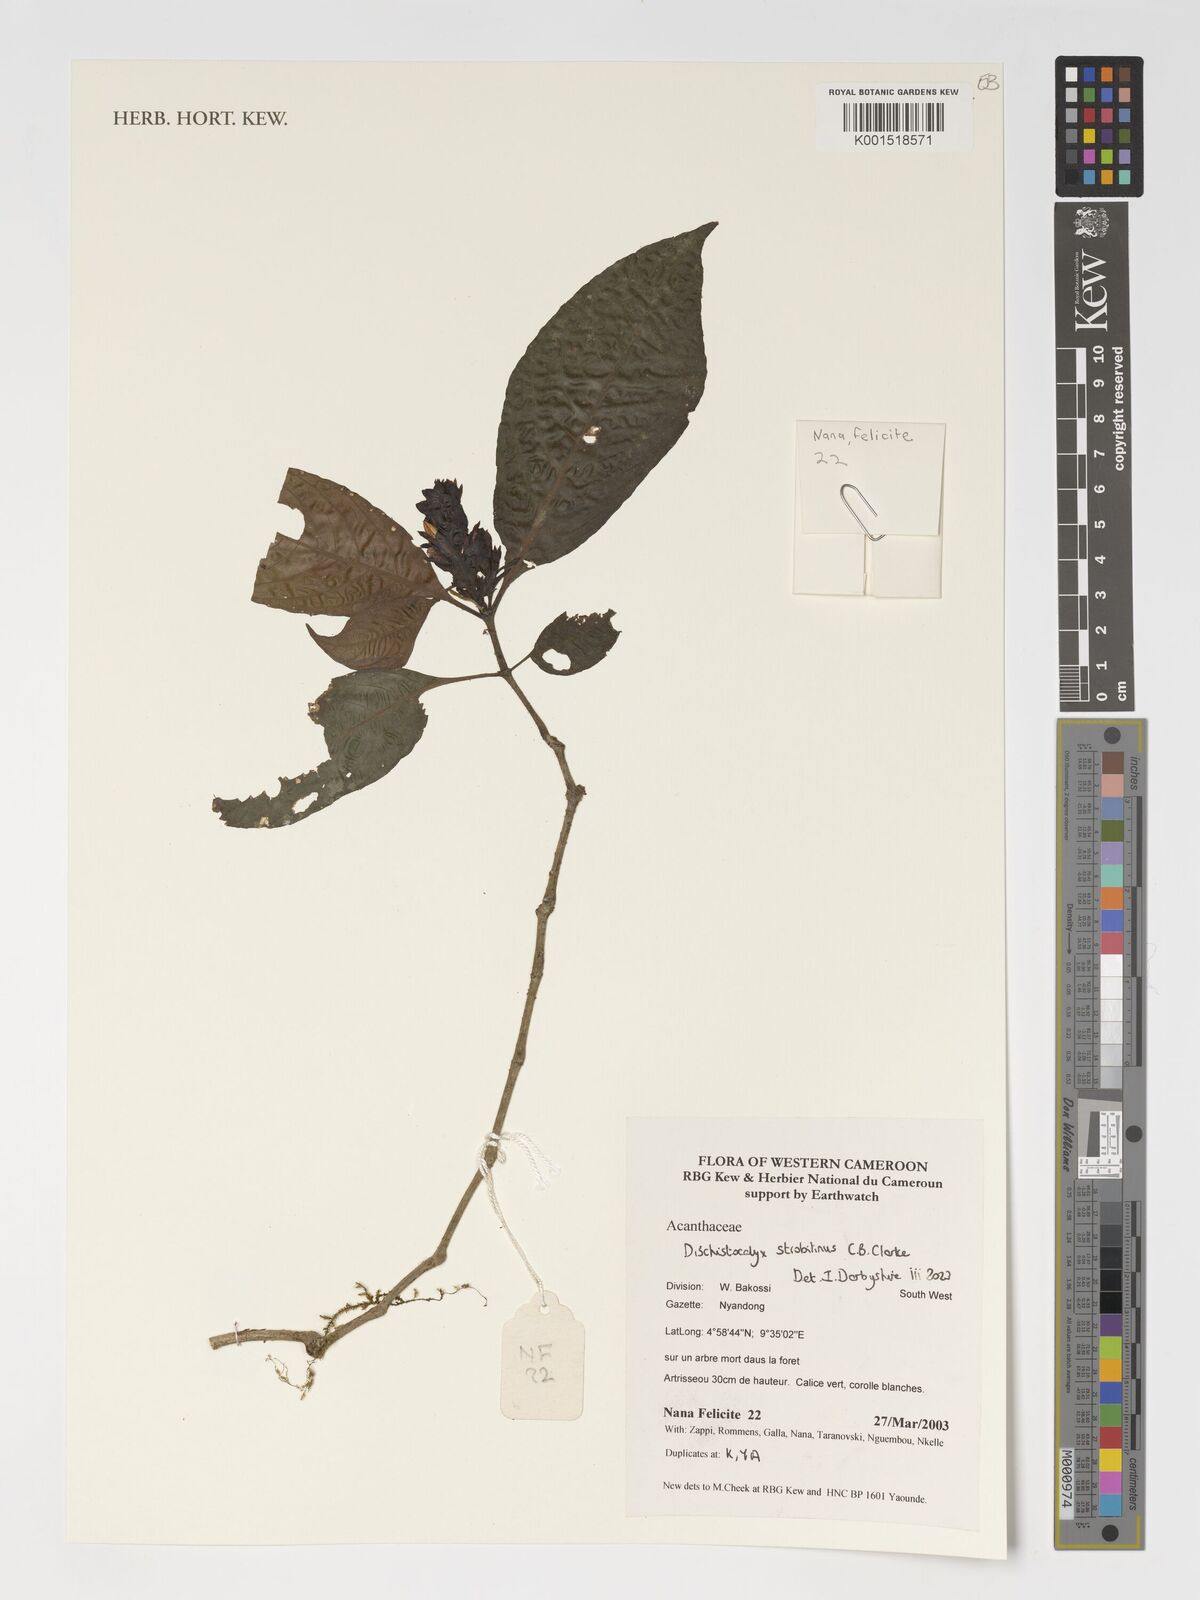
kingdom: Plantae
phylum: Tracheophyta
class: Magnoliopsida
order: Lamiales
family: Acanthaceae
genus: Dischistocalyx
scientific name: Dischistocalyx strobilinus
